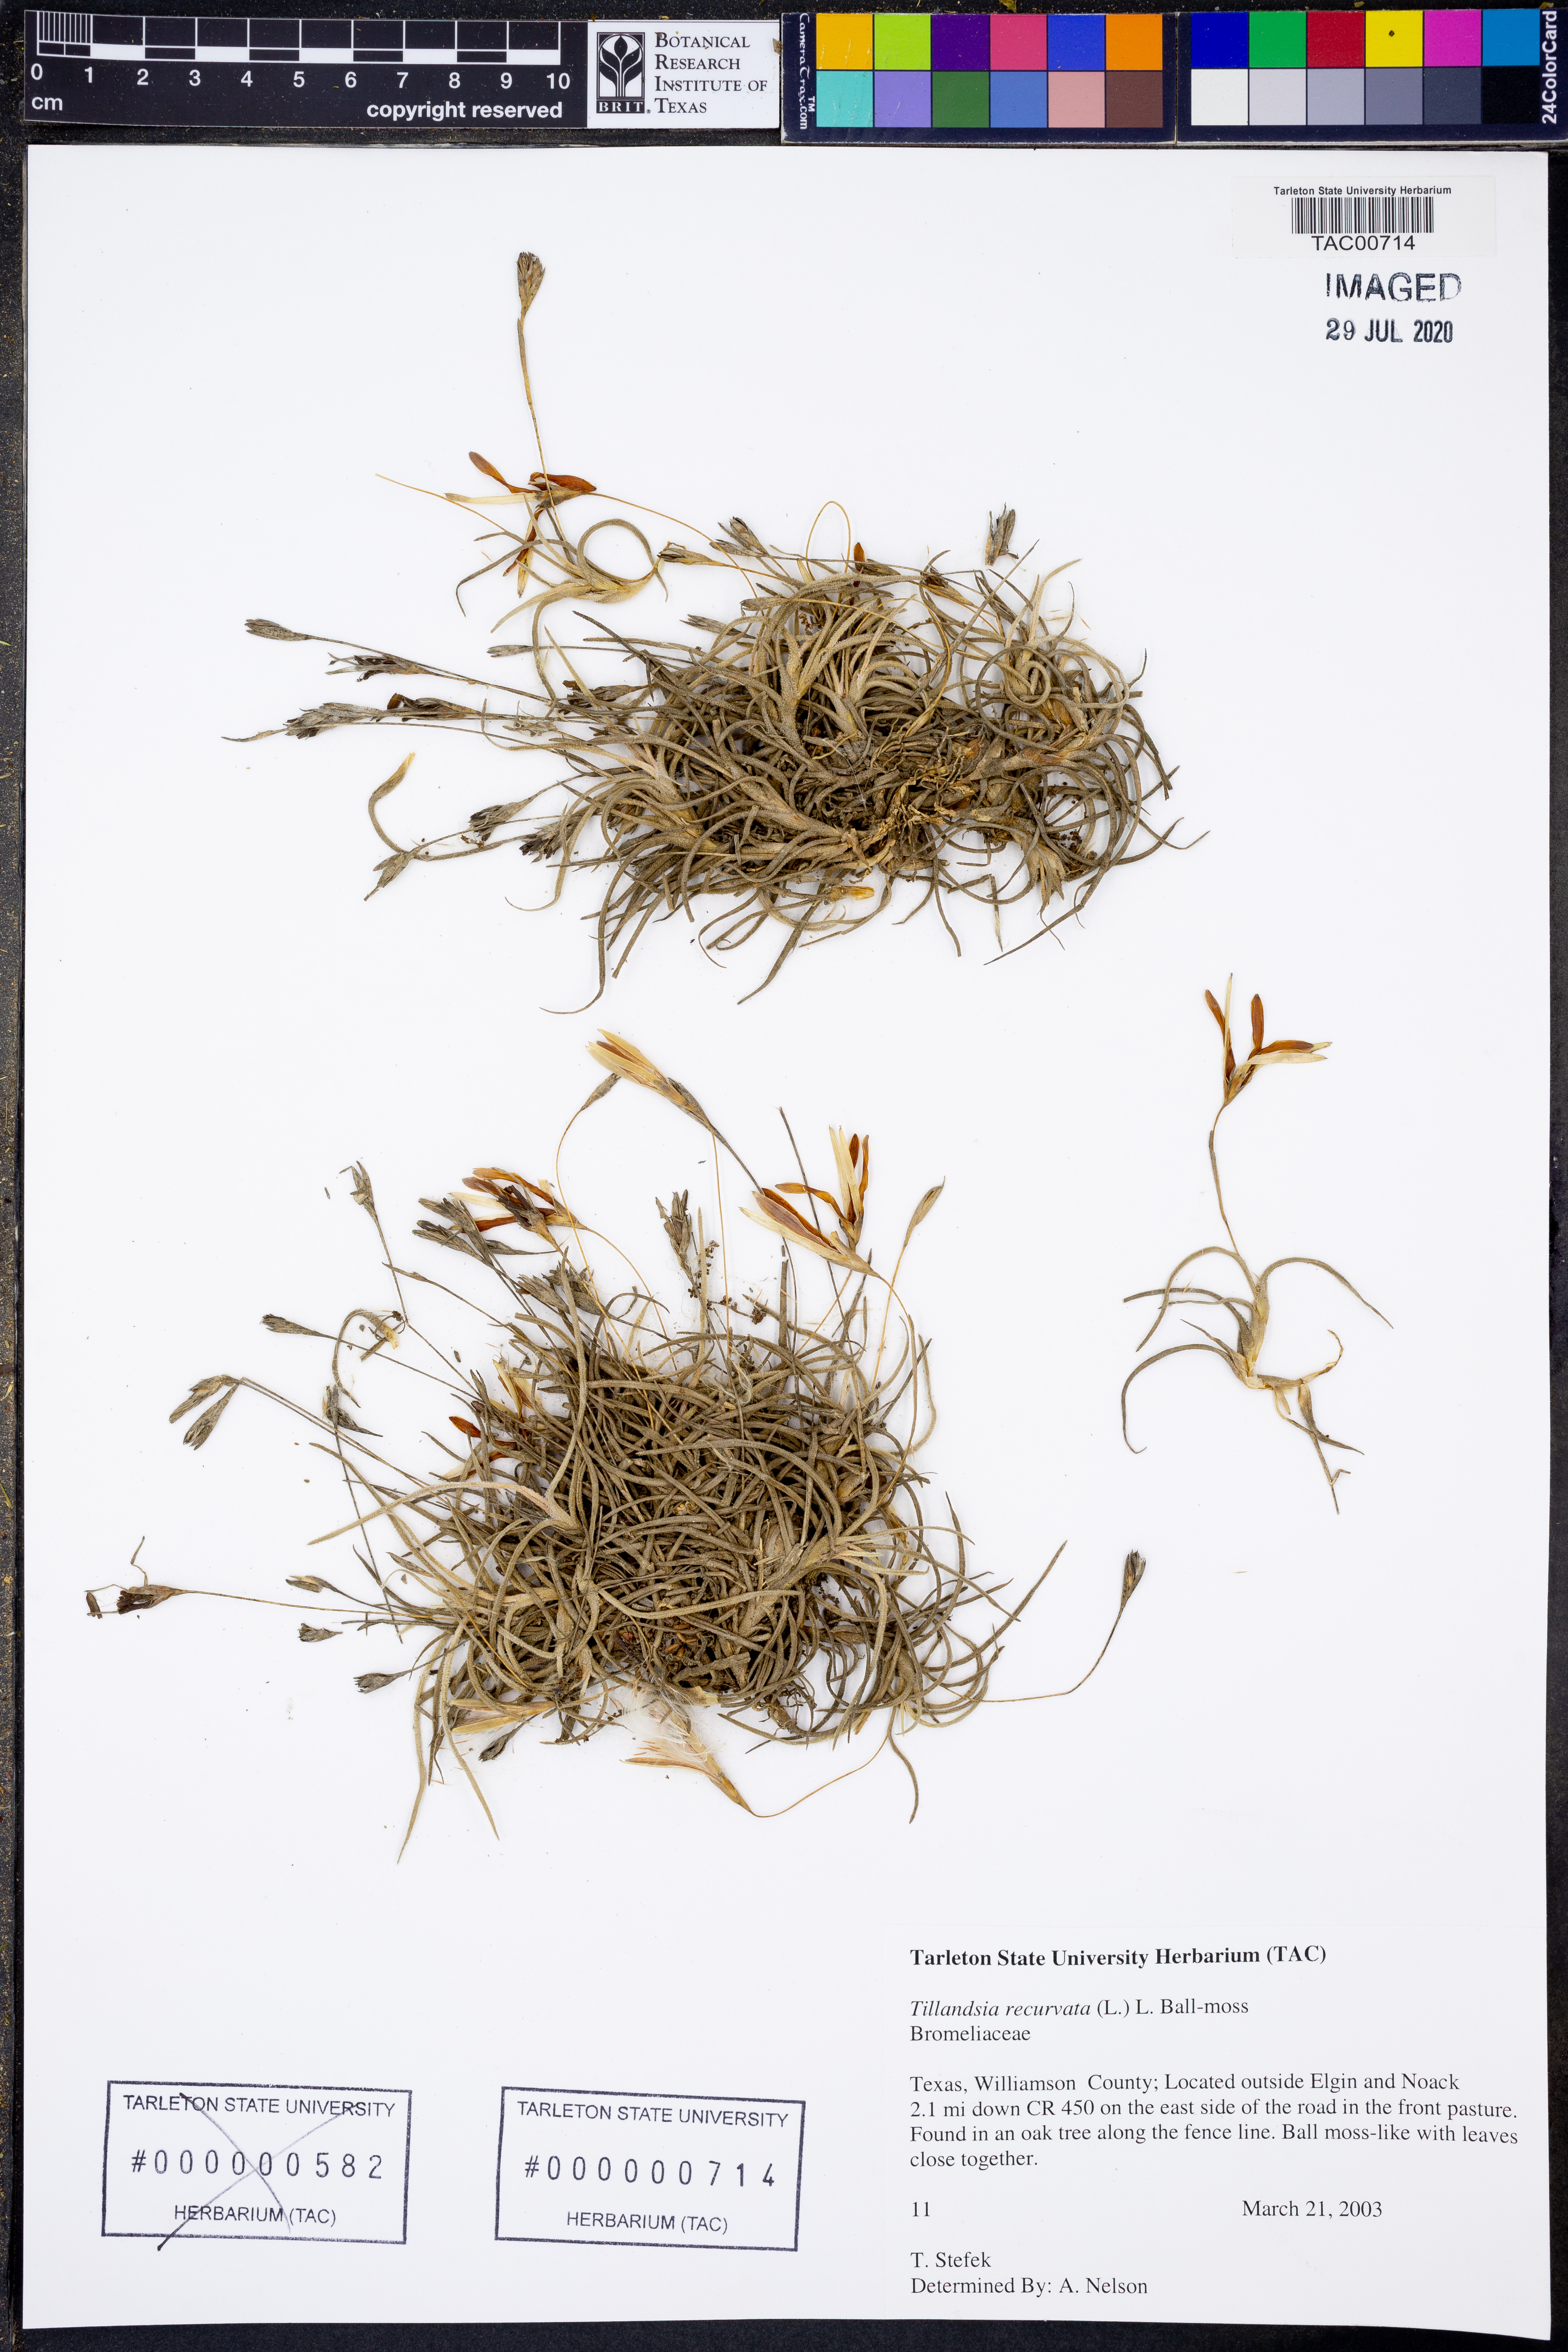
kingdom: Plantae
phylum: Tracheophyta
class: Liliopsida
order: Poales
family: Bromeliaceae
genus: Tillandsia
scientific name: Tillandsia recurvata
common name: Small ballmoss
